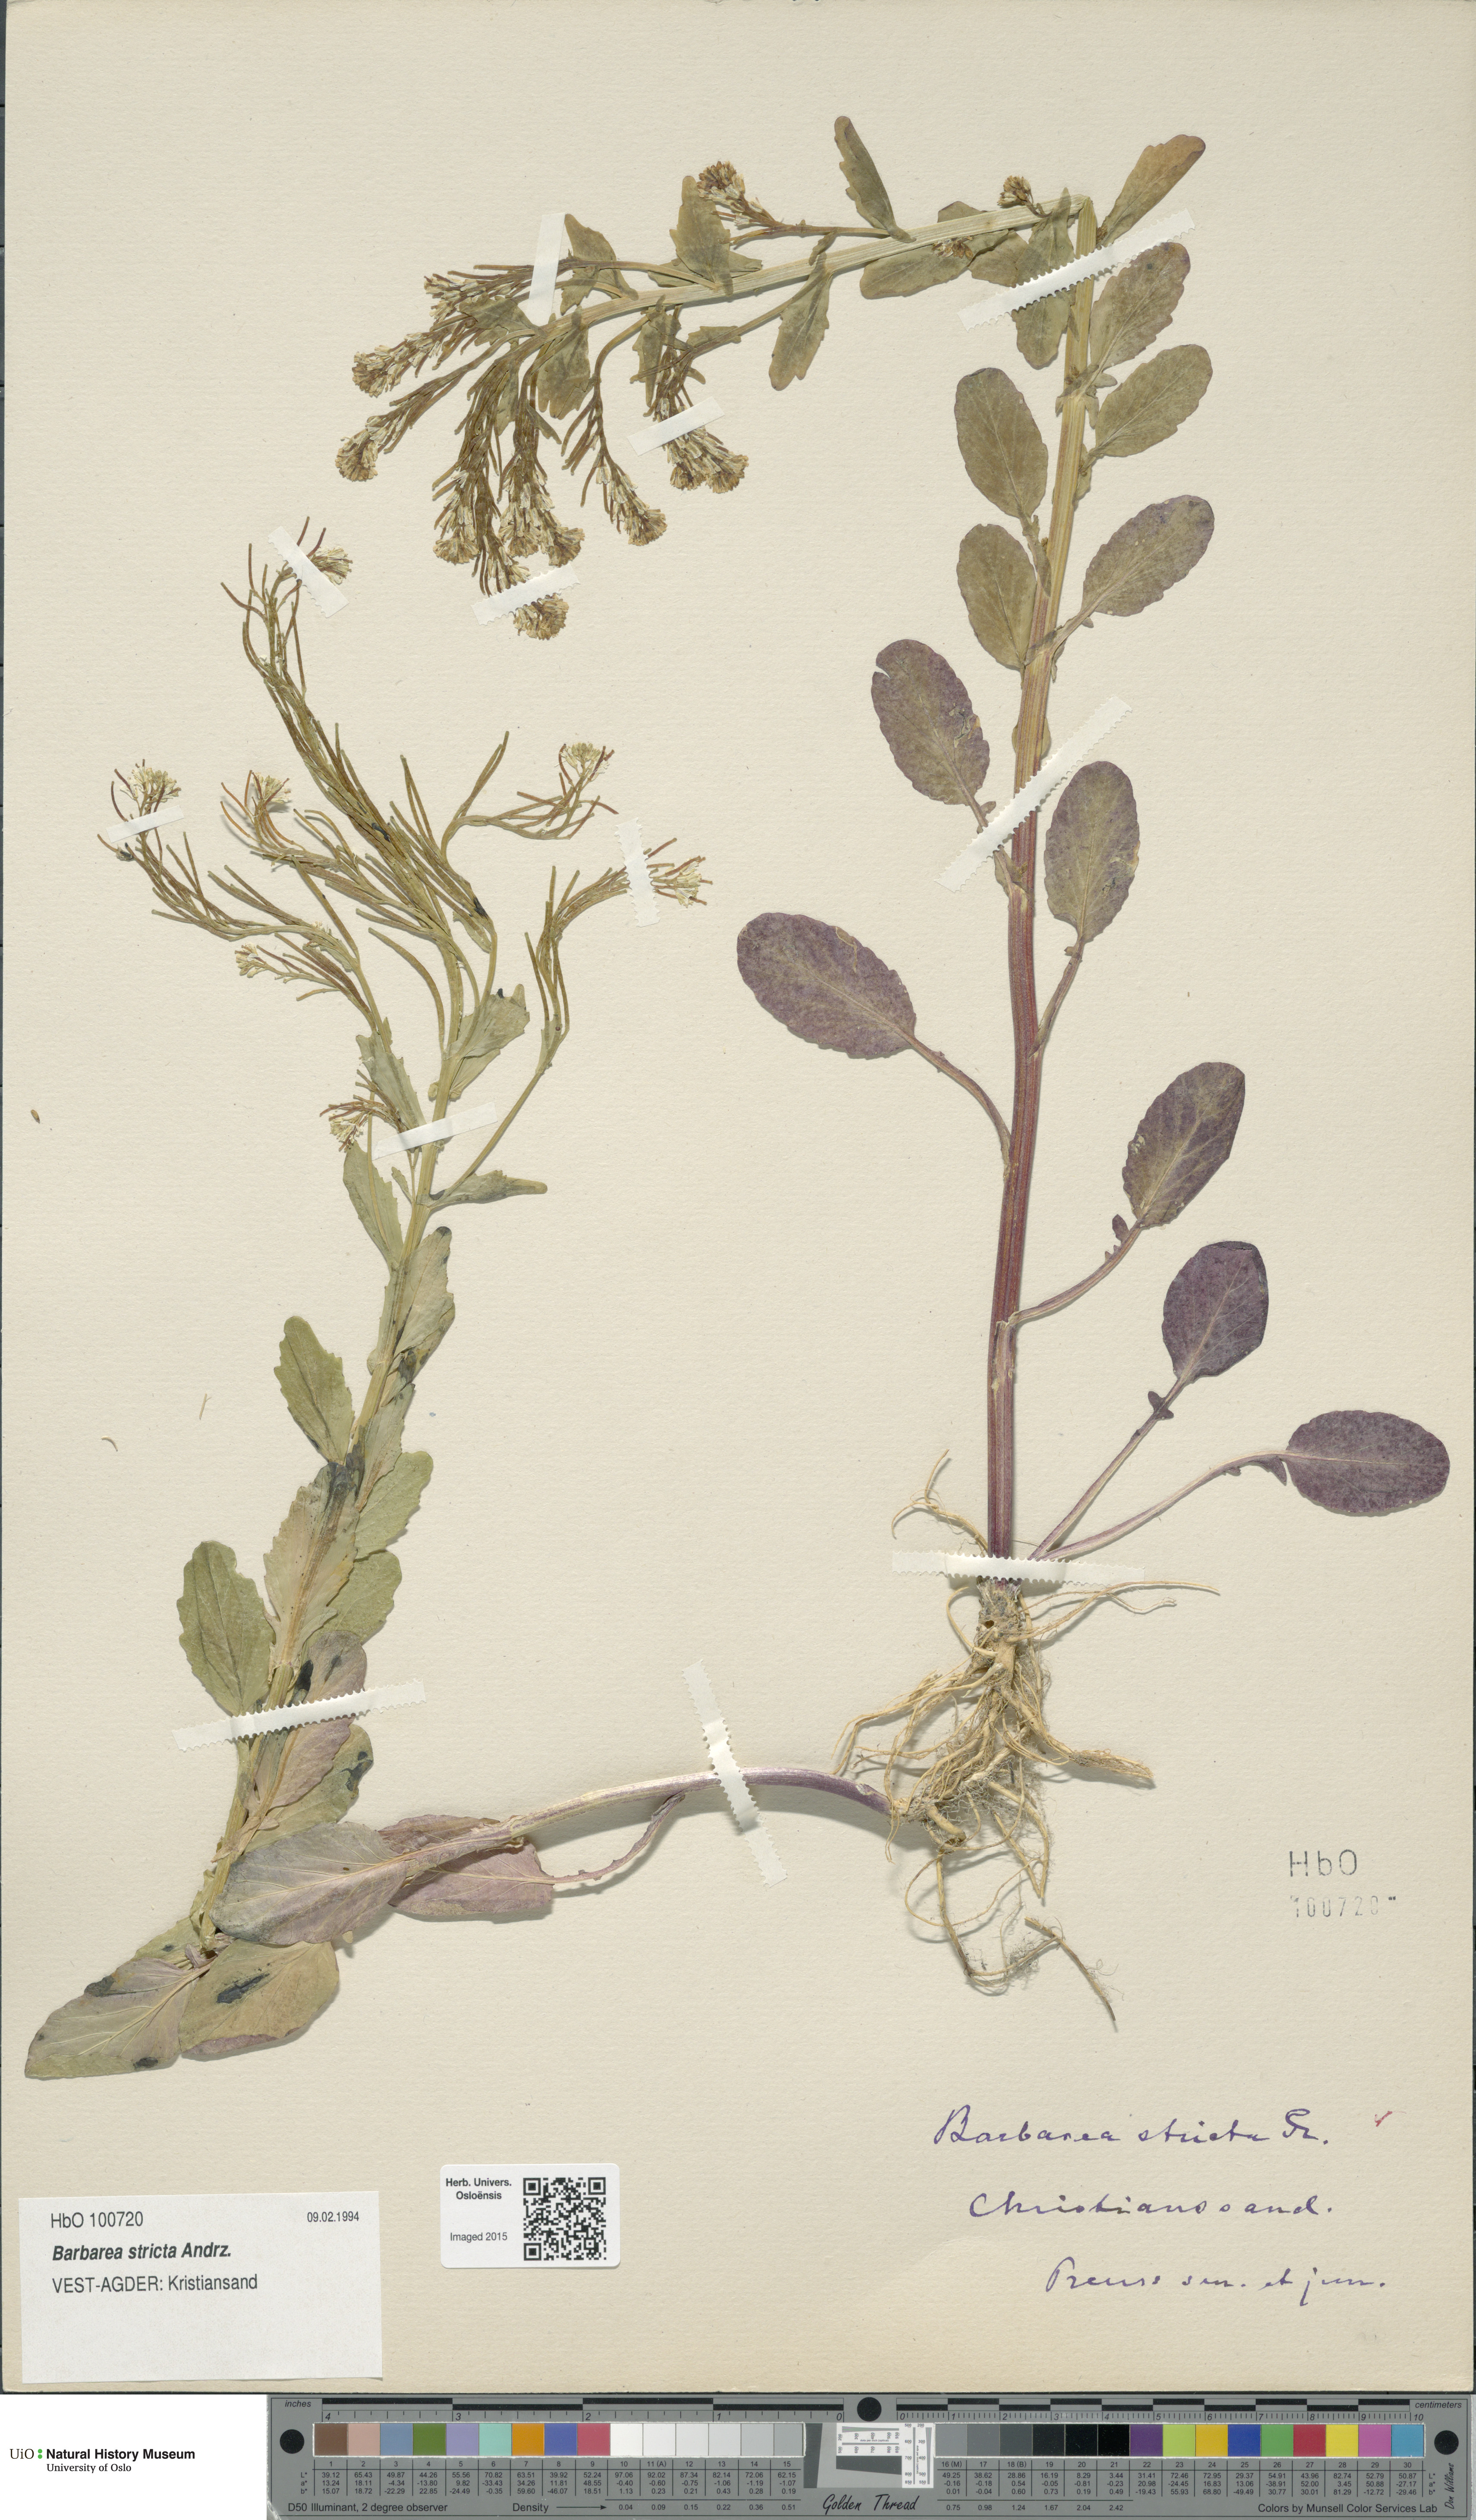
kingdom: Plantae
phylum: Tracheophyta
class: Magnoliopsida
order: Brassicales
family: Brassicaceae
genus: Barbarea
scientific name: Barbarea stricta
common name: Small-flowered winter-cress
